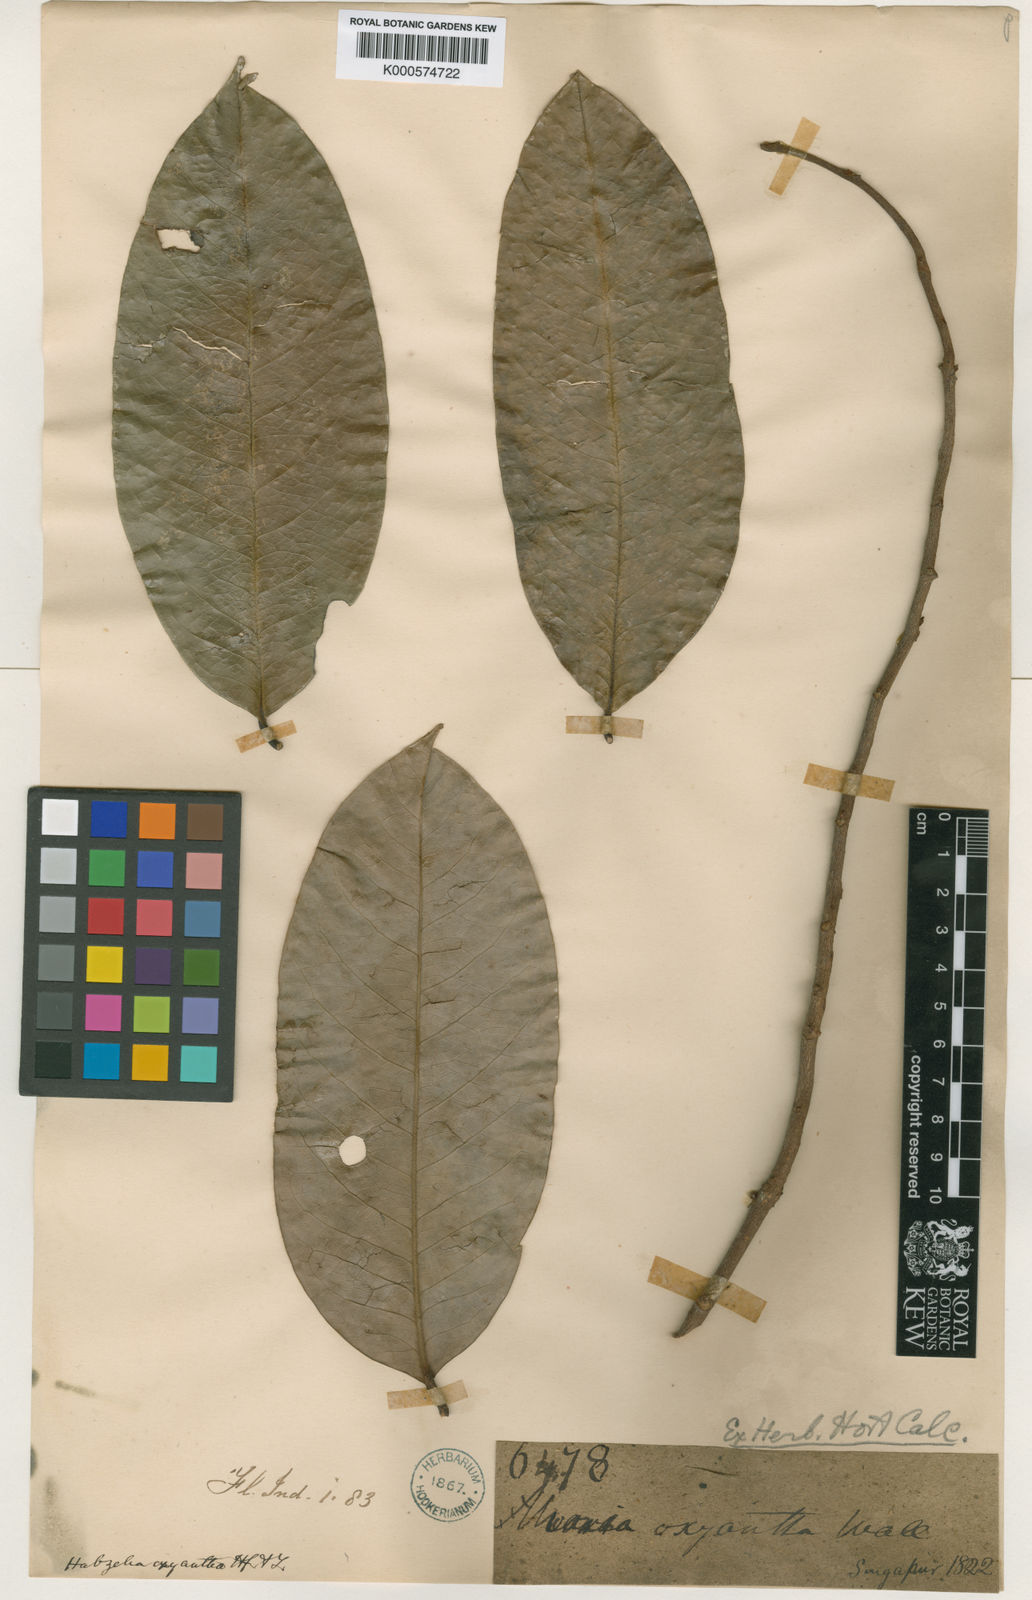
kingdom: Plantae
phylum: Tracheophyta
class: Magnoliopsida
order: Magnoliales
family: Annonaceae
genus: Xylopia
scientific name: Xylopia ferruginea
